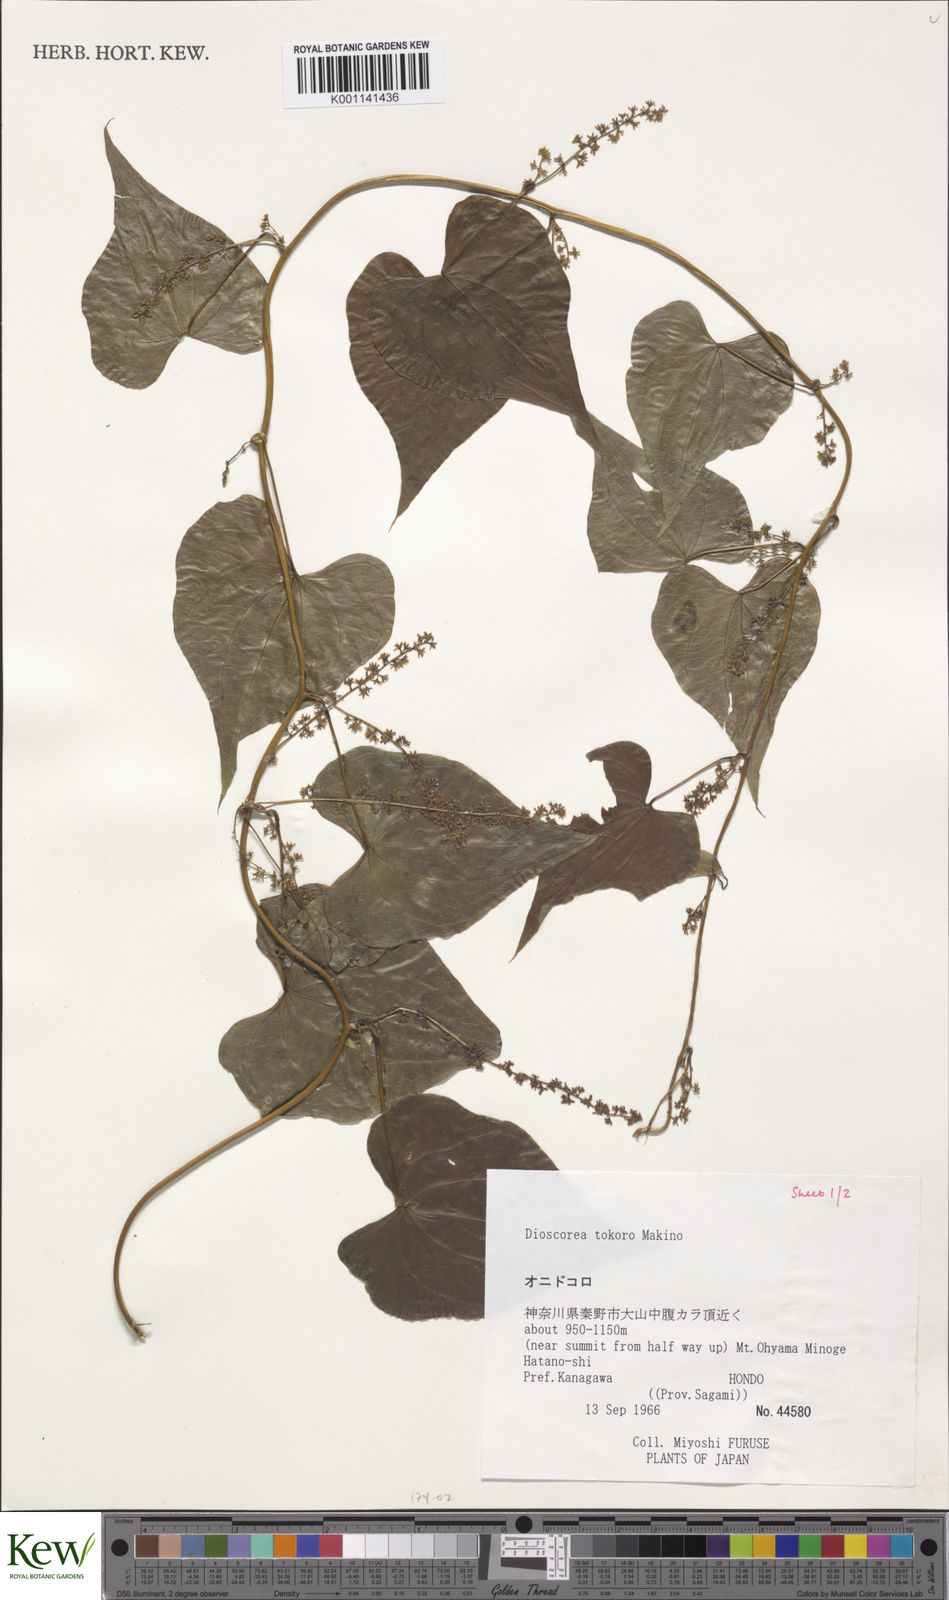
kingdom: Plantae
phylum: Tracheophyta
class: Liliopsida
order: Dioscoreales
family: Dioscoreaceae
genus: Dioscorea
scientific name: Dioscorea tokoro
